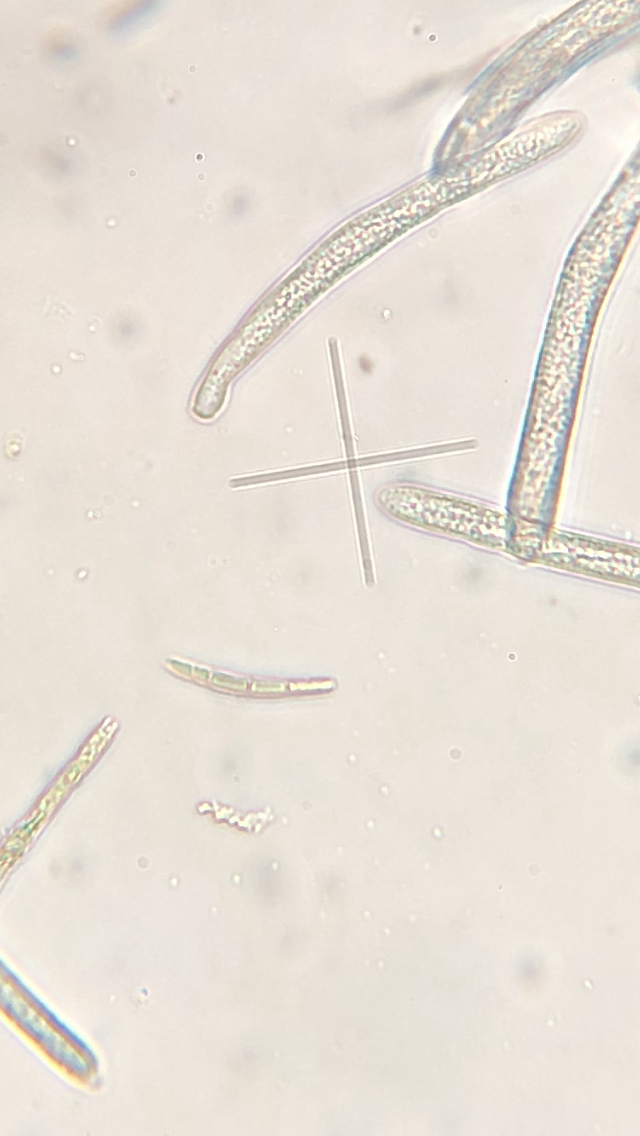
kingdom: Fungi
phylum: Ascomycota
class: Leotiomycetes
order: Helotiales
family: Lachnaceae
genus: Lachnum
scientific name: Lachnum sulphureum
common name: svovlhåret frynseskive
